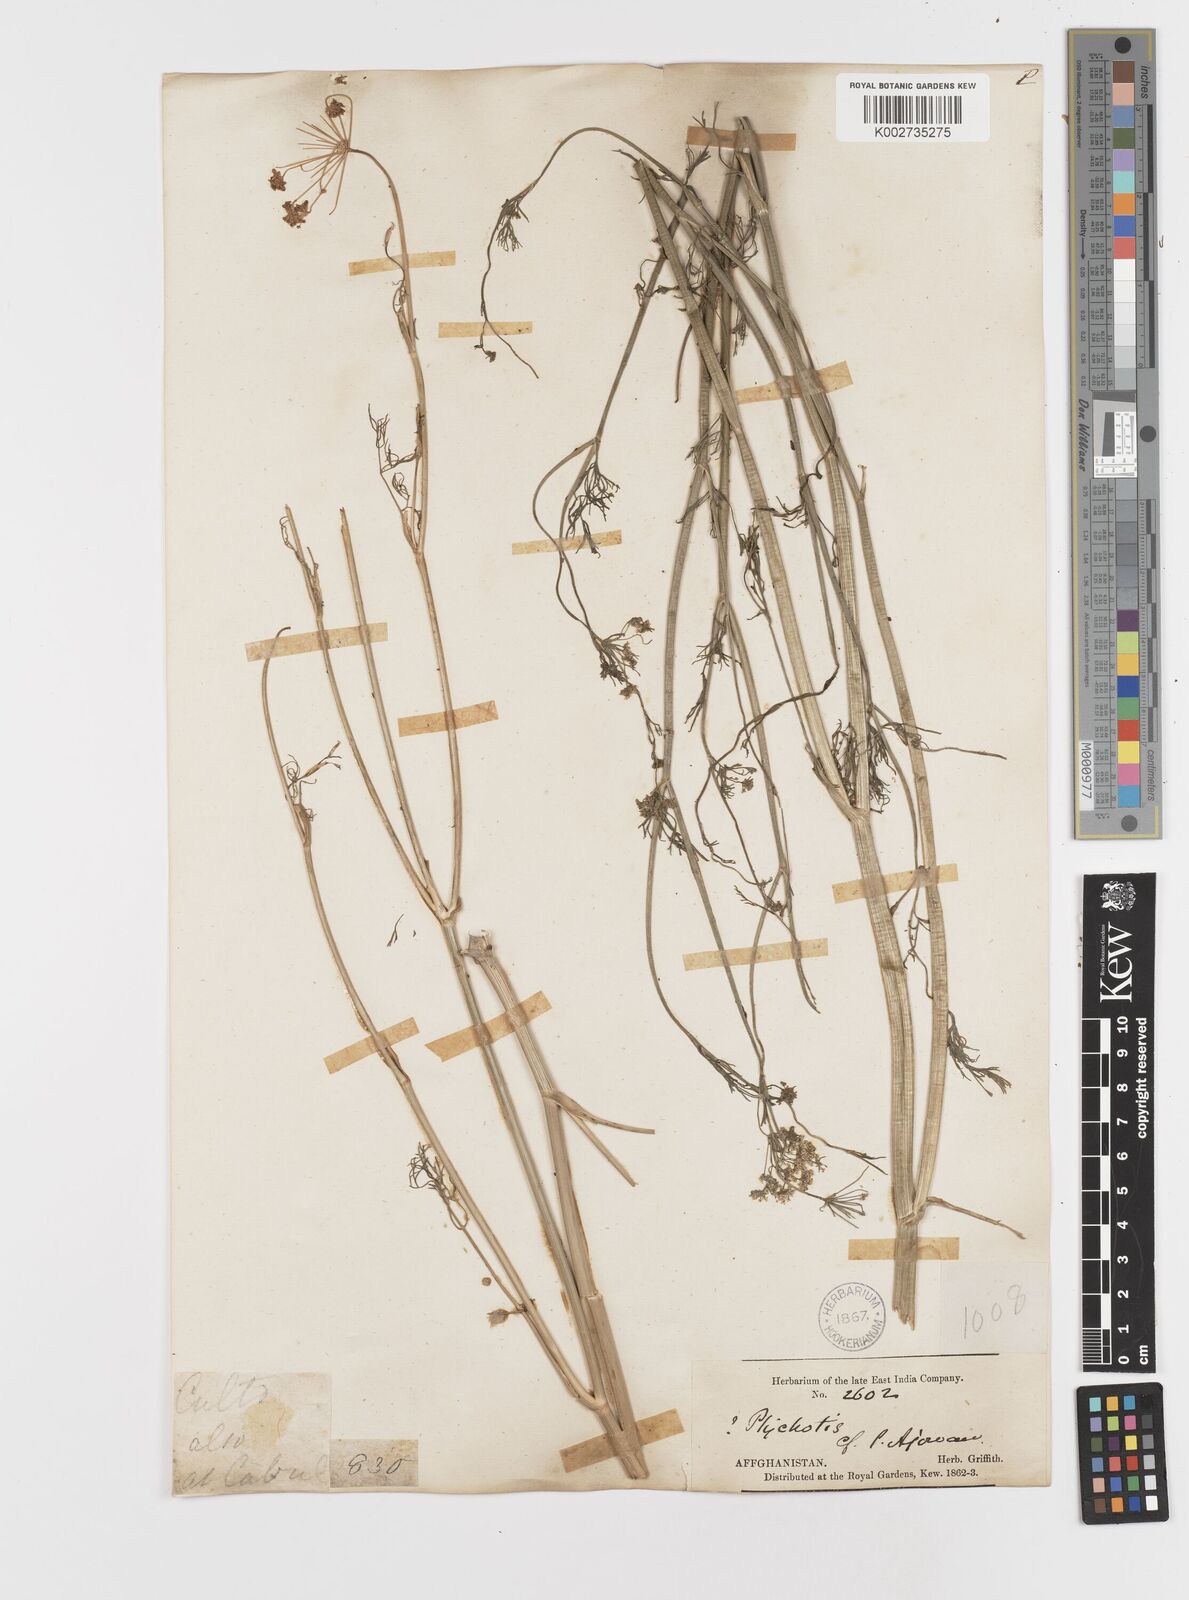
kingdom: Plantae
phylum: Tracheophyta
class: Magnoliopsida
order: Apiales
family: Apiaceae
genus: Trachyspermum
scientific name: Trachyspermum ammi
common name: Ajowan
